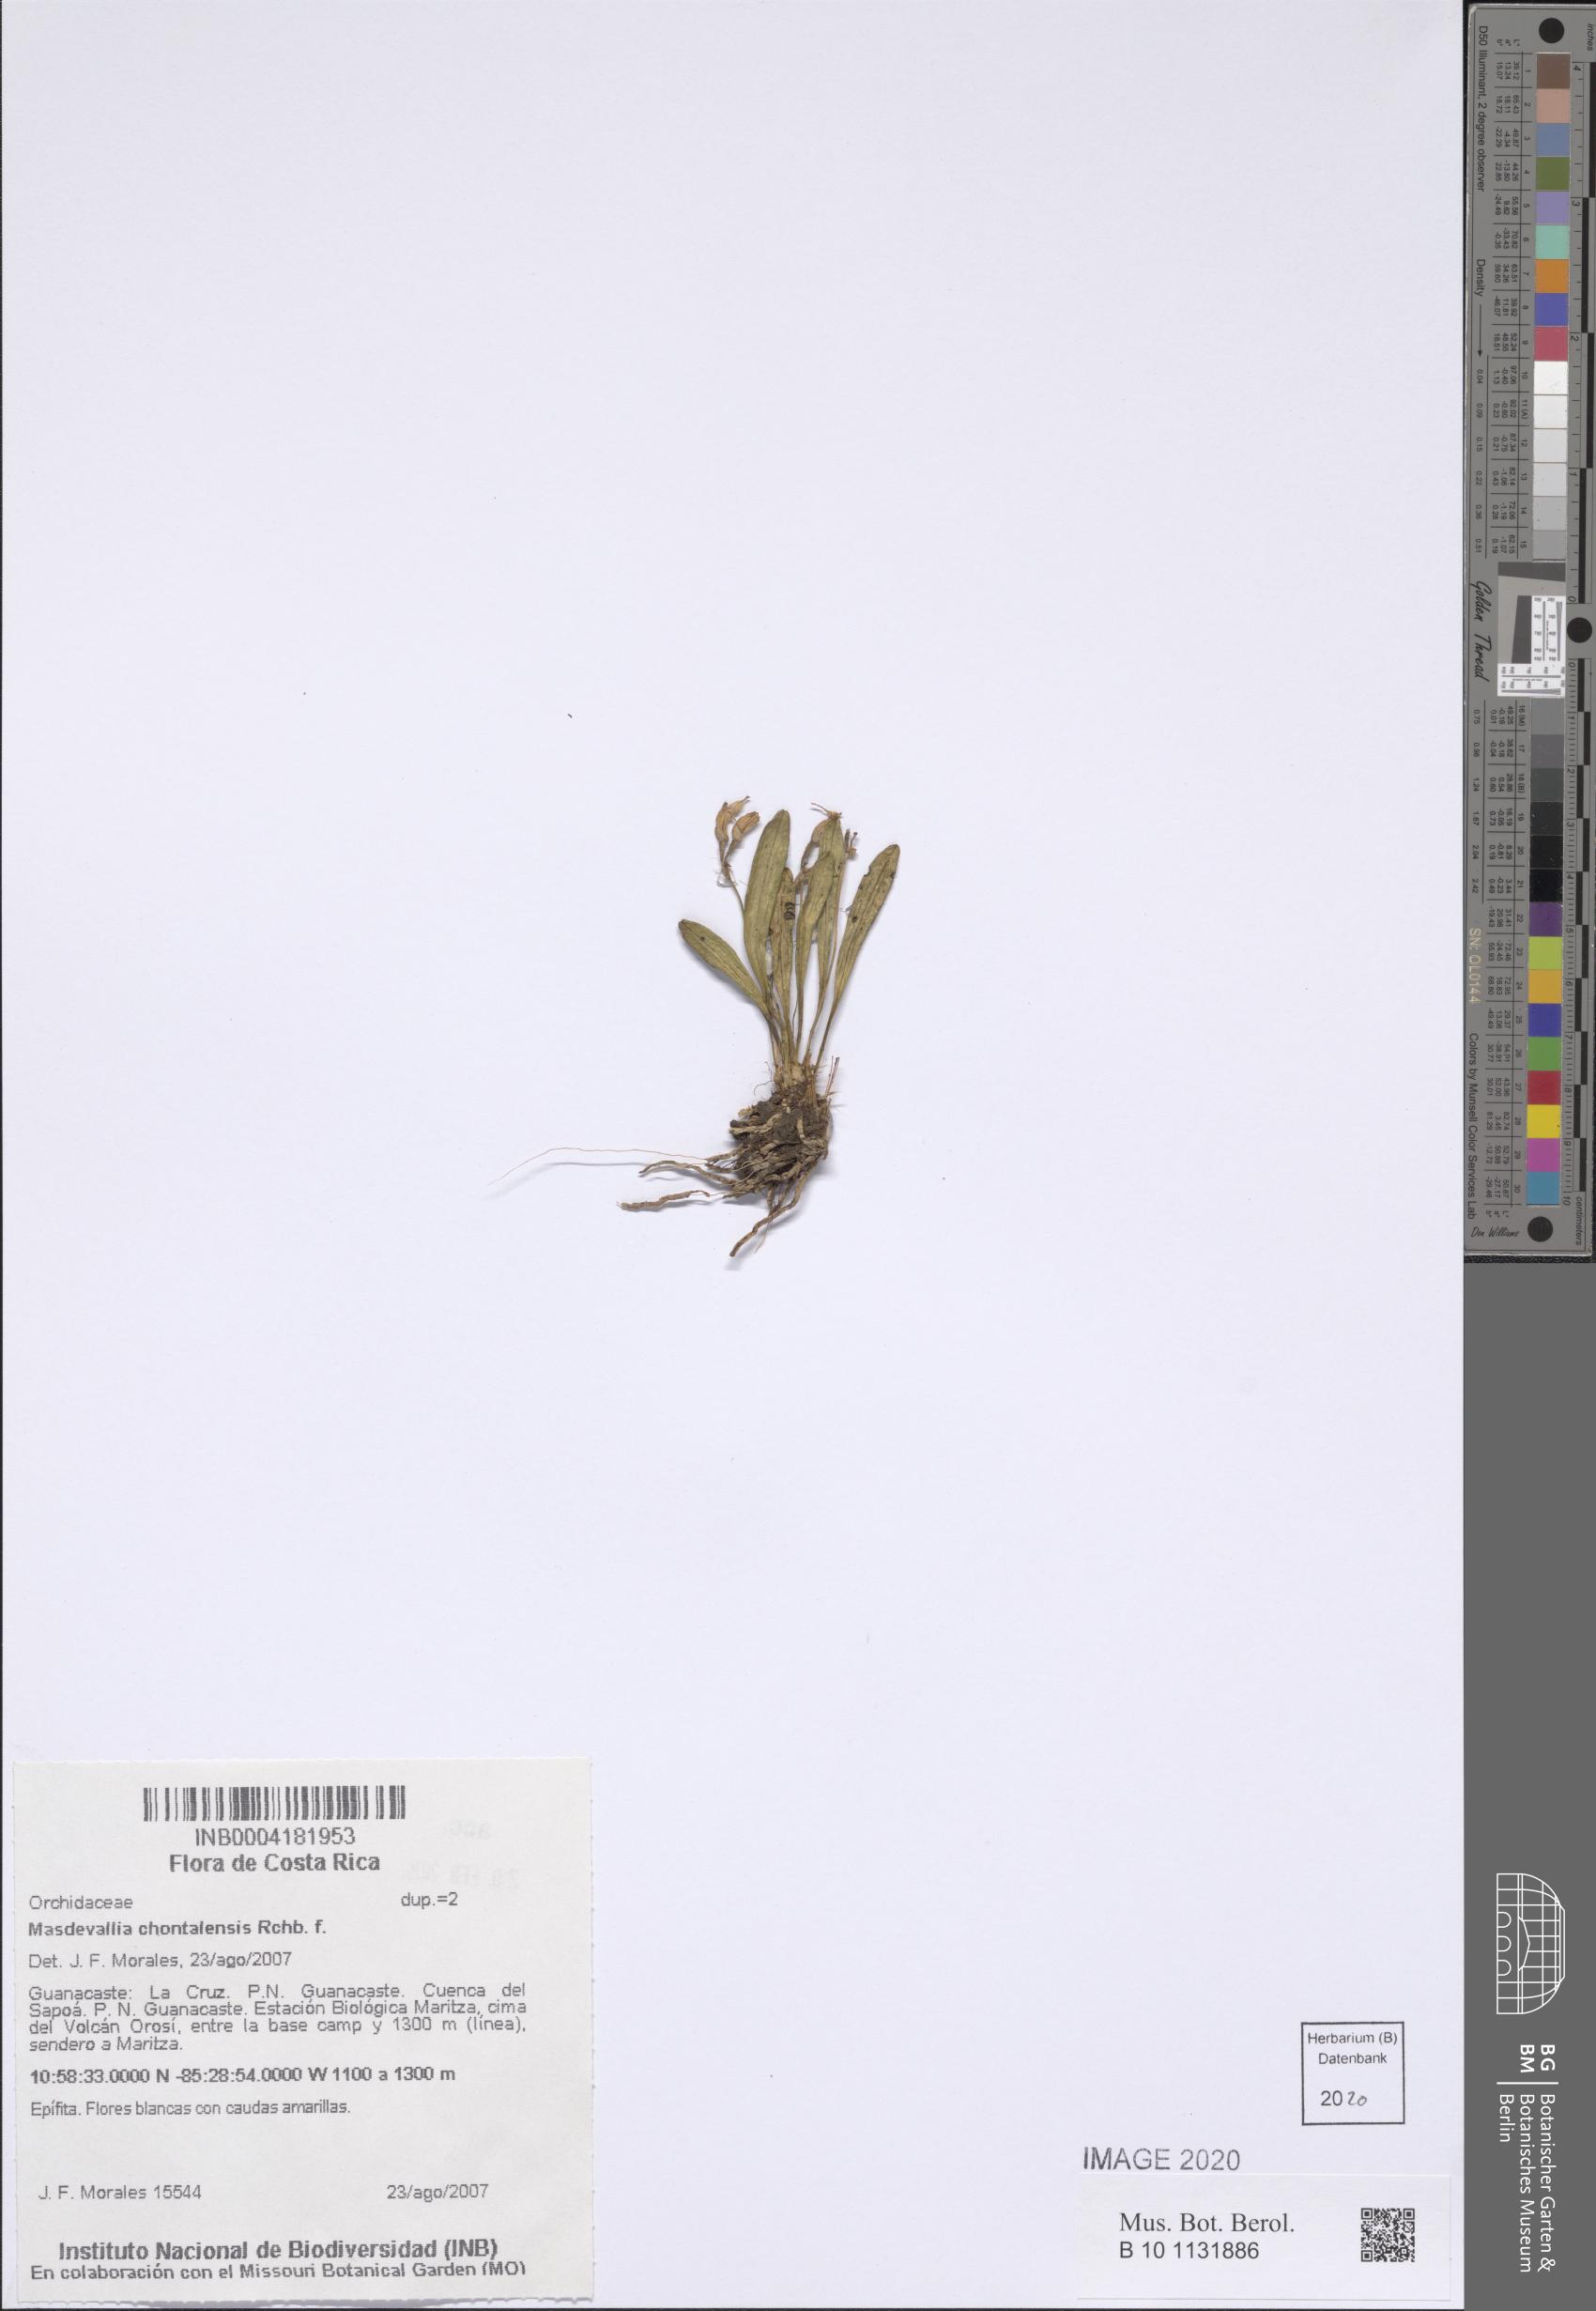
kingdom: Plantae
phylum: Tracheophyta
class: Liliopsida
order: Asparagales
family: Orchidaceae
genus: Masdevallia
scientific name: Masdevallia chontalensis
